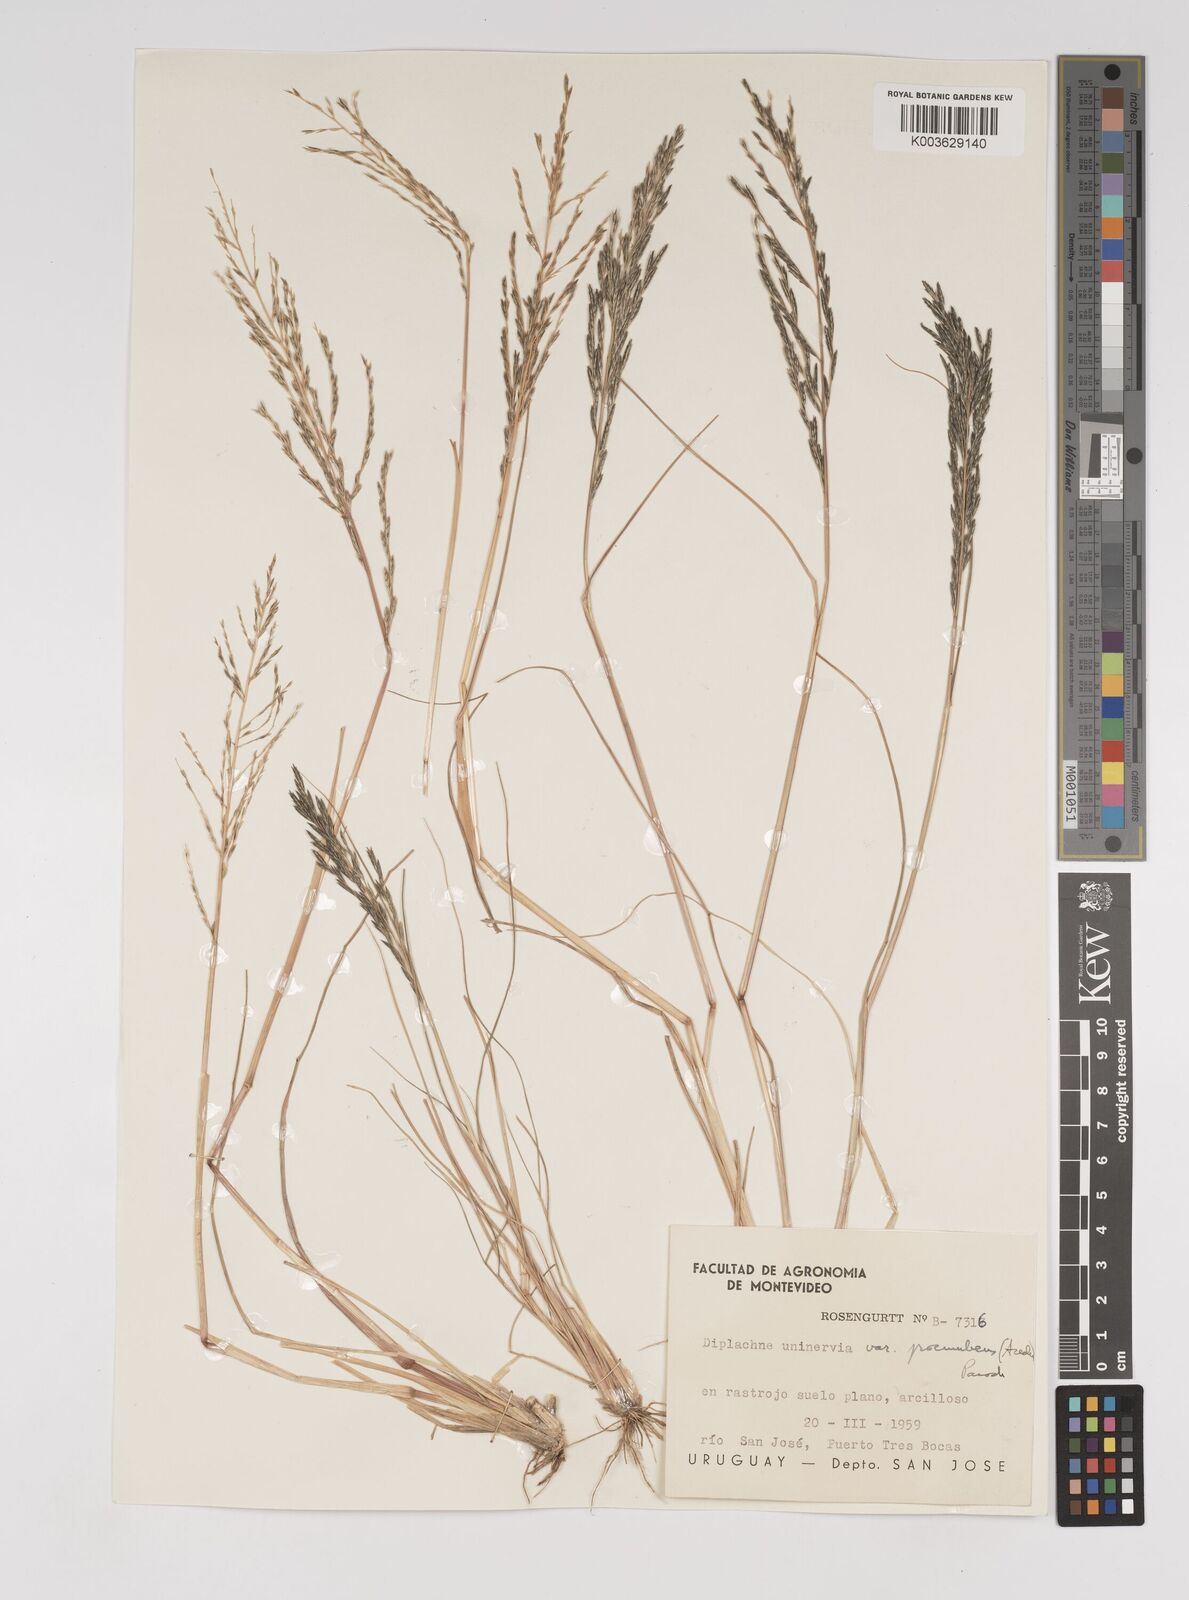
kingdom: Plantae
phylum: Tracheophyta
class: Liliopsida
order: Poales
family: Poaceae
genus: Diplachne
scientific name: Diplachne fusca
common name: Brown beetle grass
